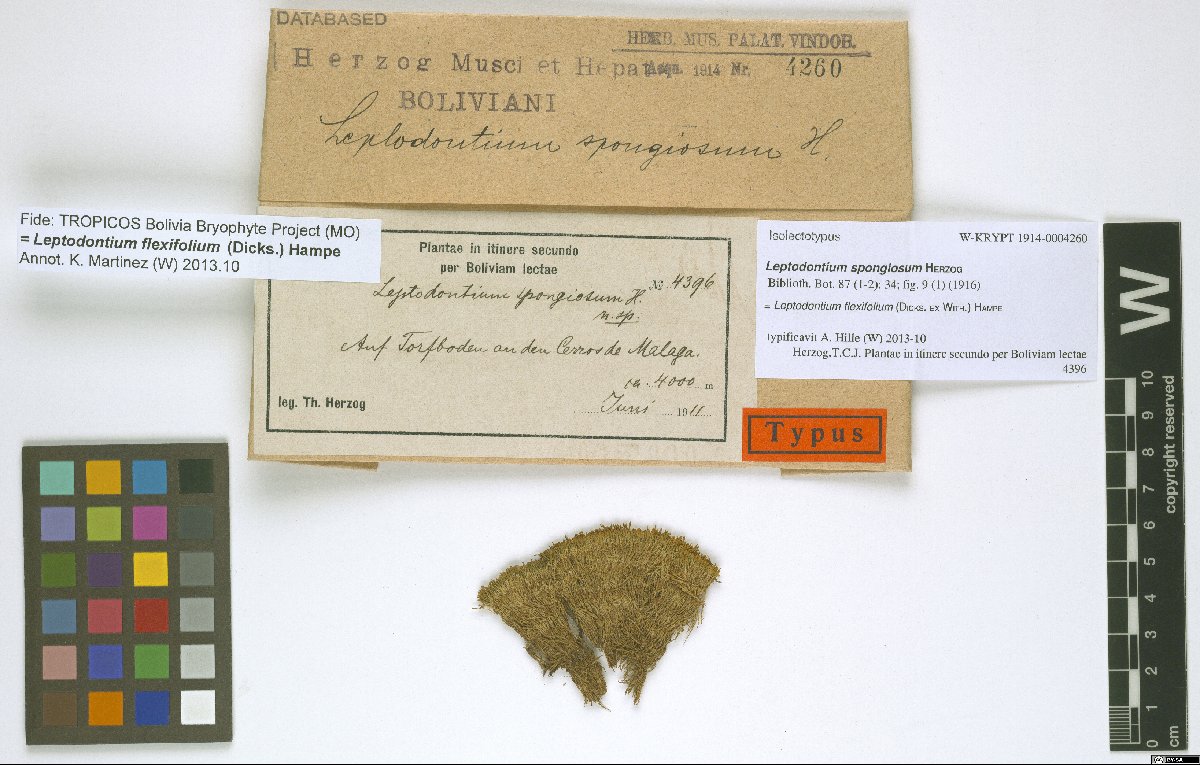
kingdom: Plantae
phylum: Bryophyta
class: Bryopsida
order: Pottiales
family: Pottiaceae
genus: Leptodontium
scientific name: Leptodontium flexifolium
